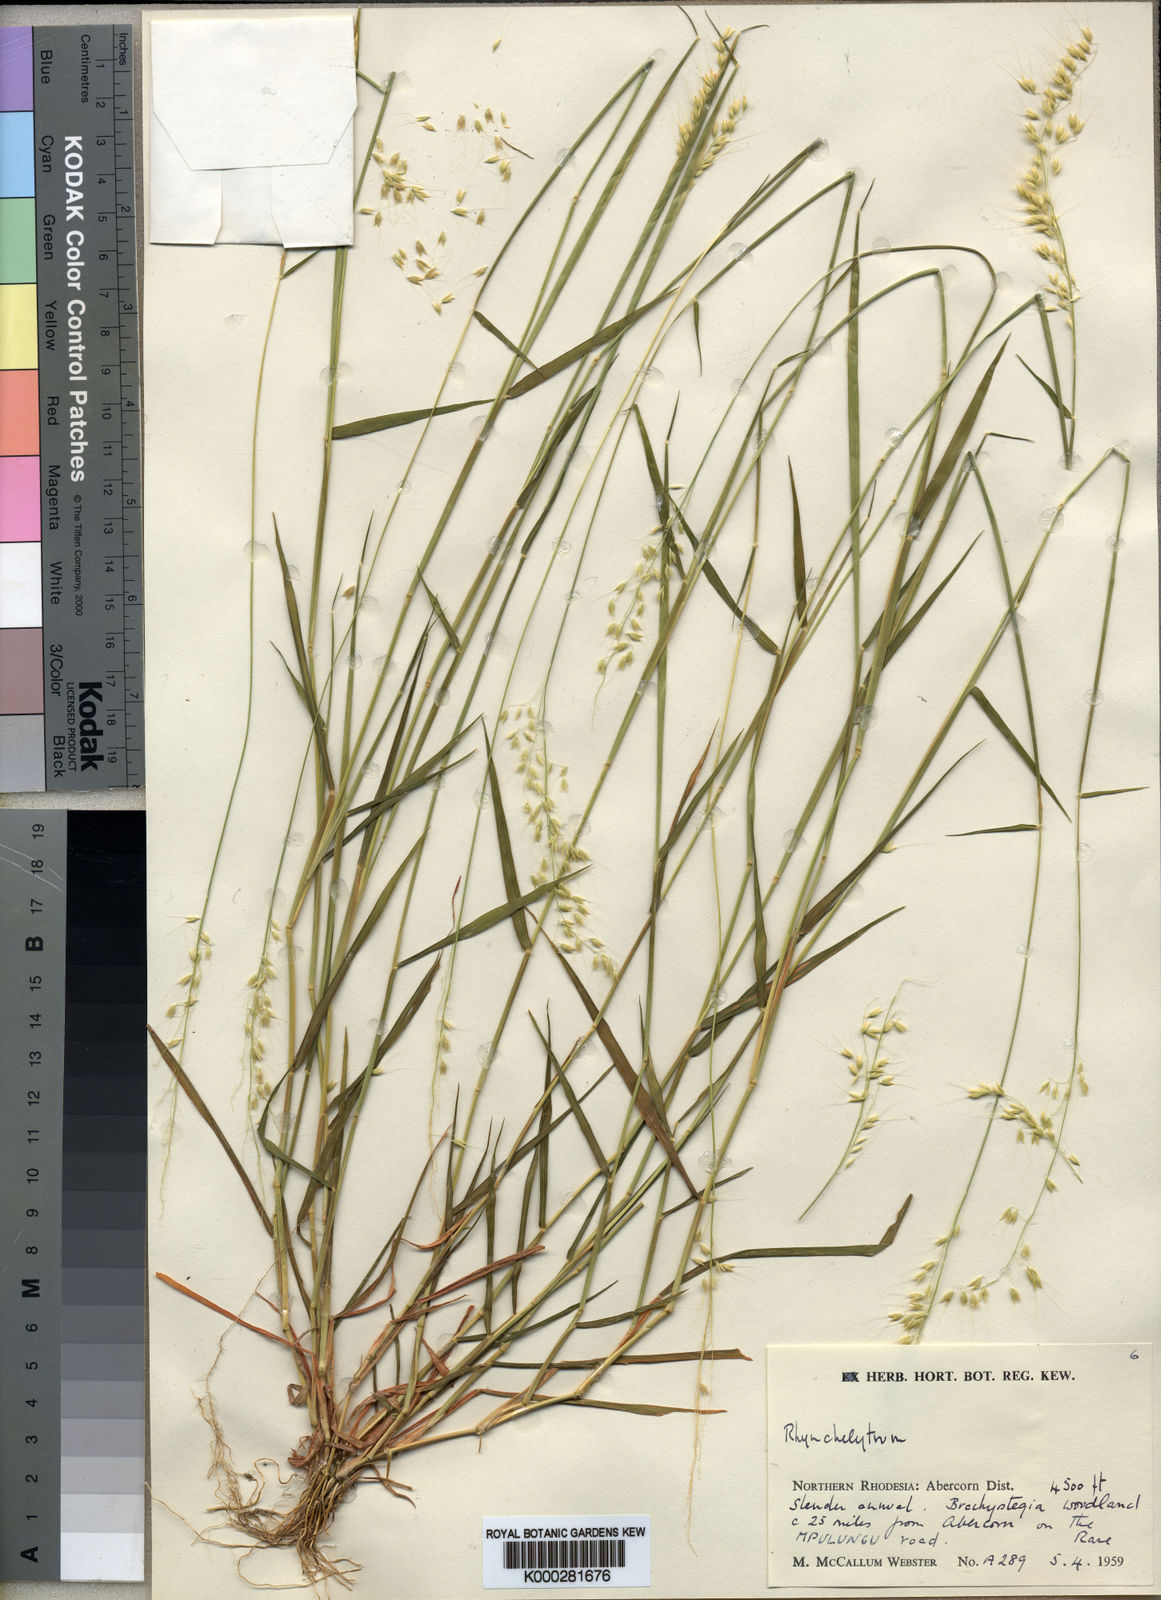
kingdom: Plantae
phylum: Tracheophyta
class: Liliopsida
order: Poales
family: Poaceae
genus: Melinis
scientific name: Melinis kallimorpha
